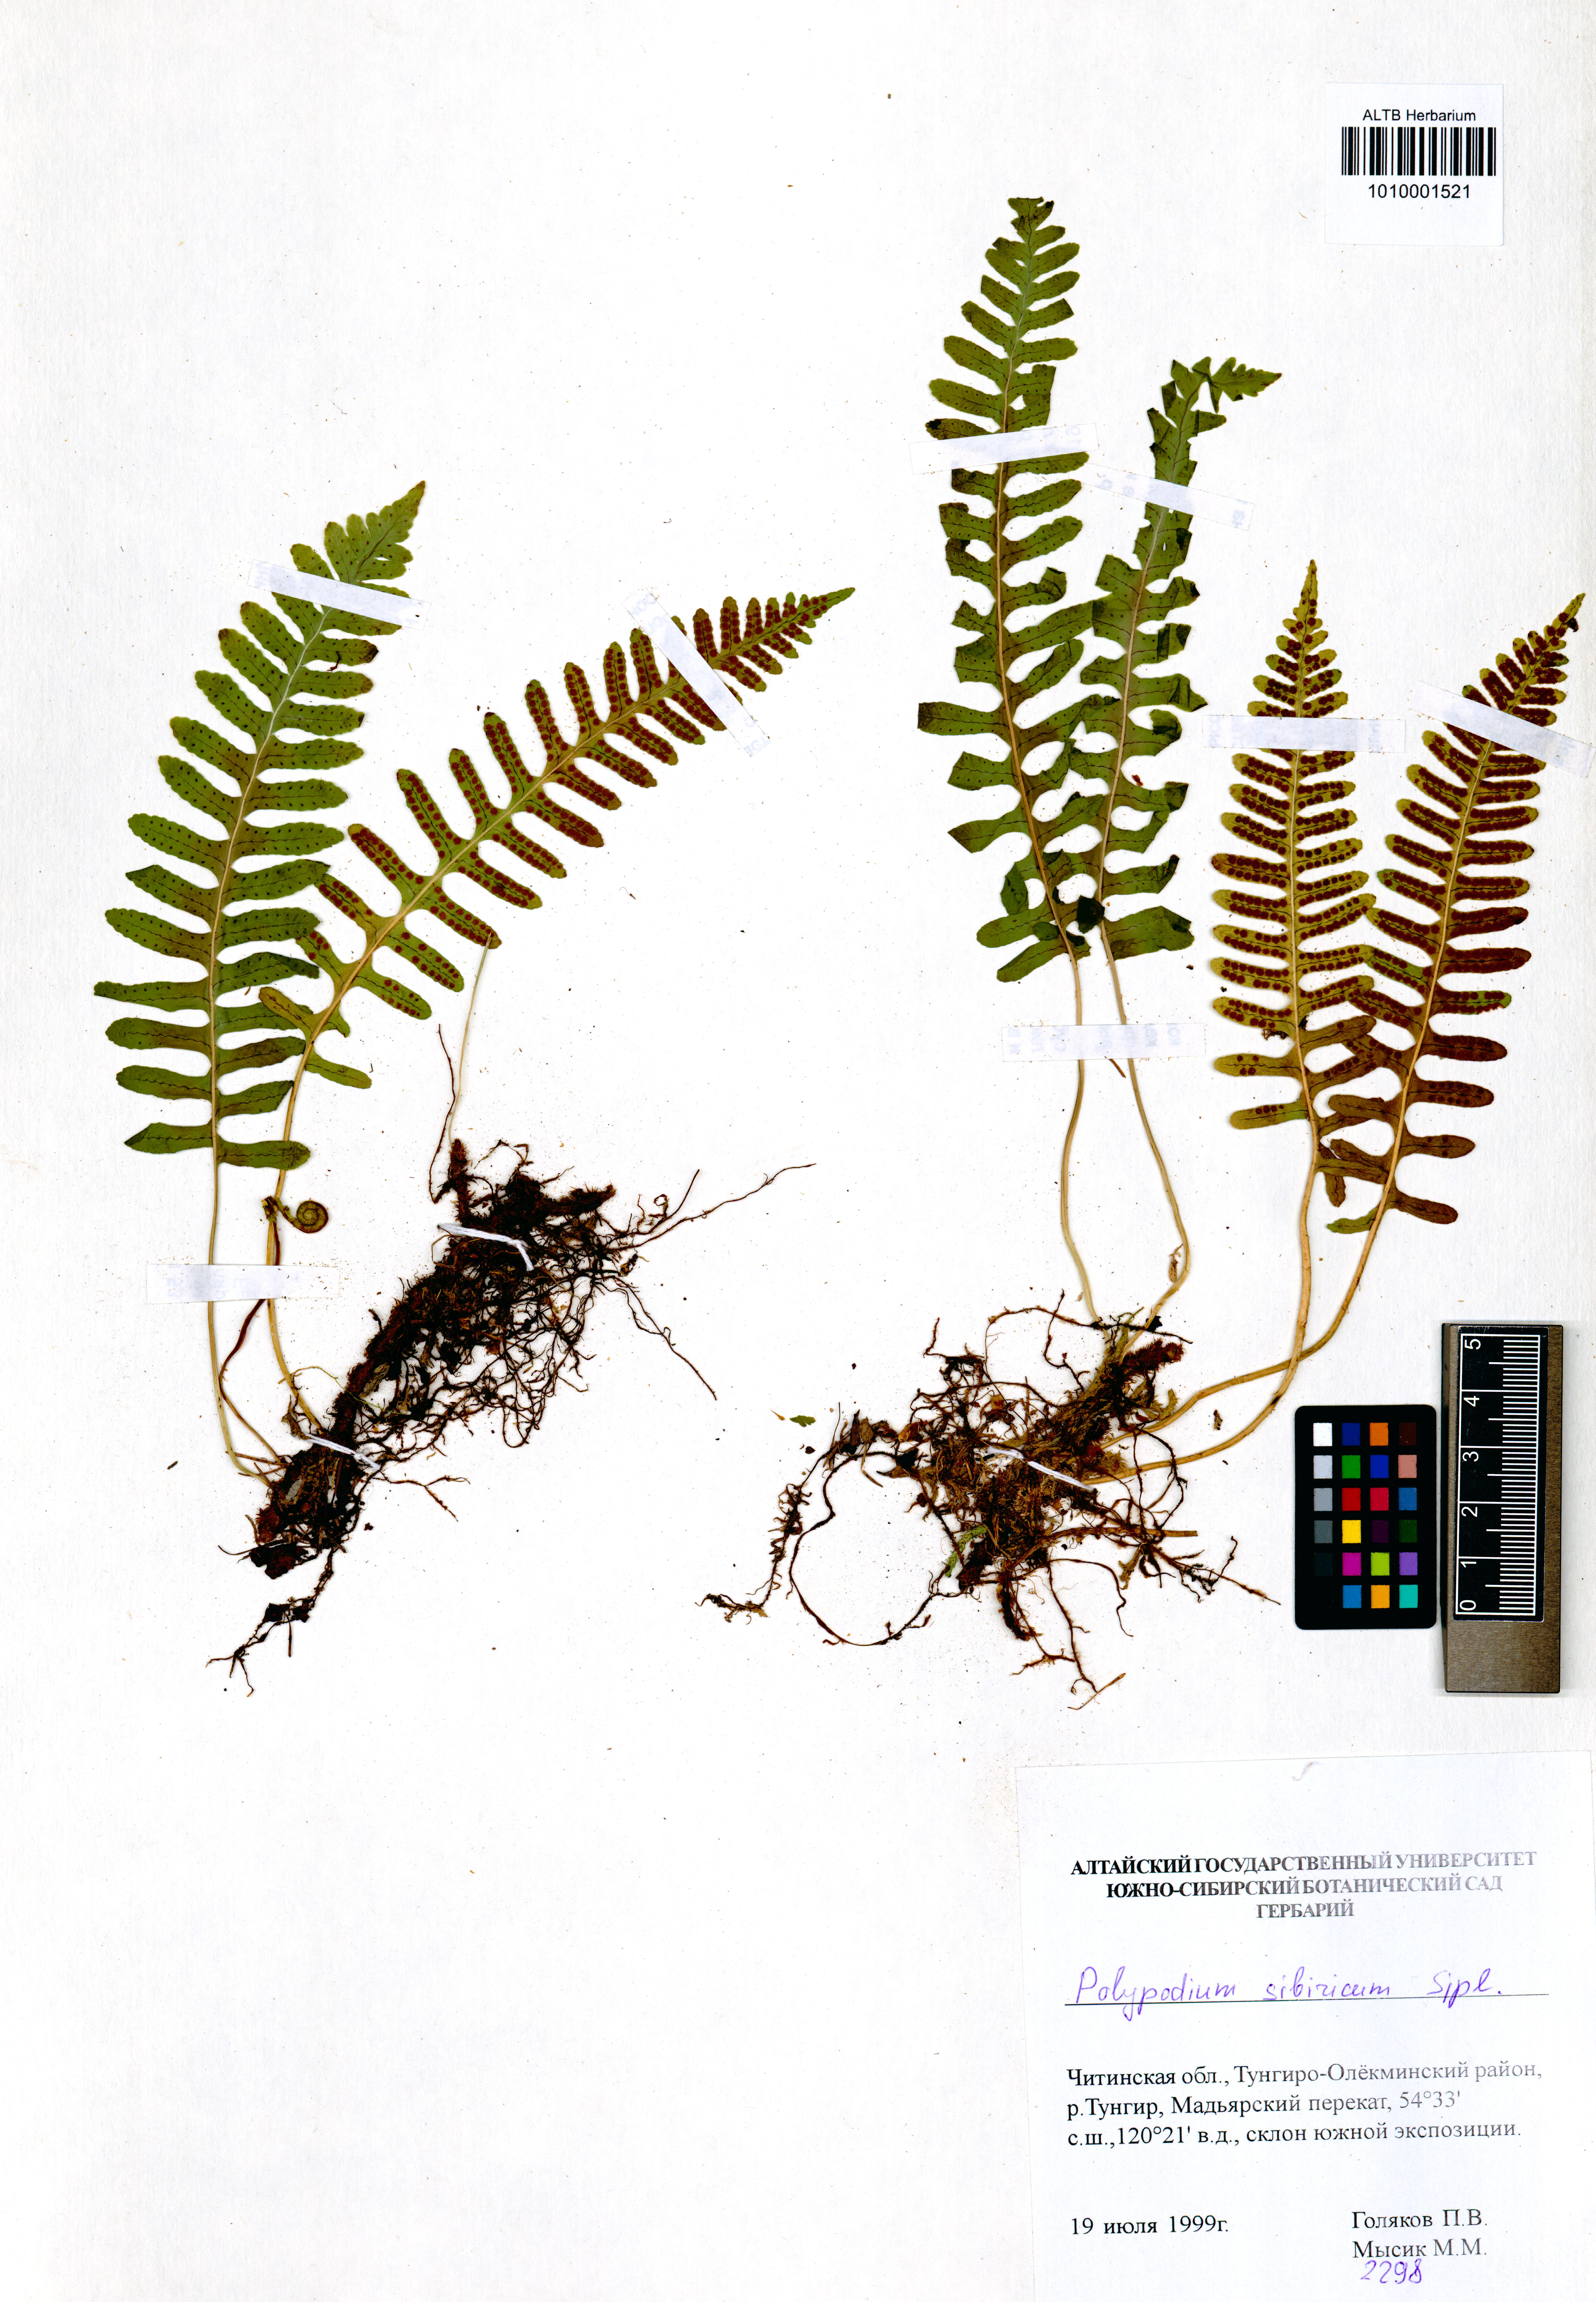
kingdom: Plantae
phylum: Tracheophyta
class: Polypodiopsida
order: Polypodiales
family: Polypodiaceae
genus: Polypodium
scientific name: Polypodium sibiricum
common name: Siberian polypody
